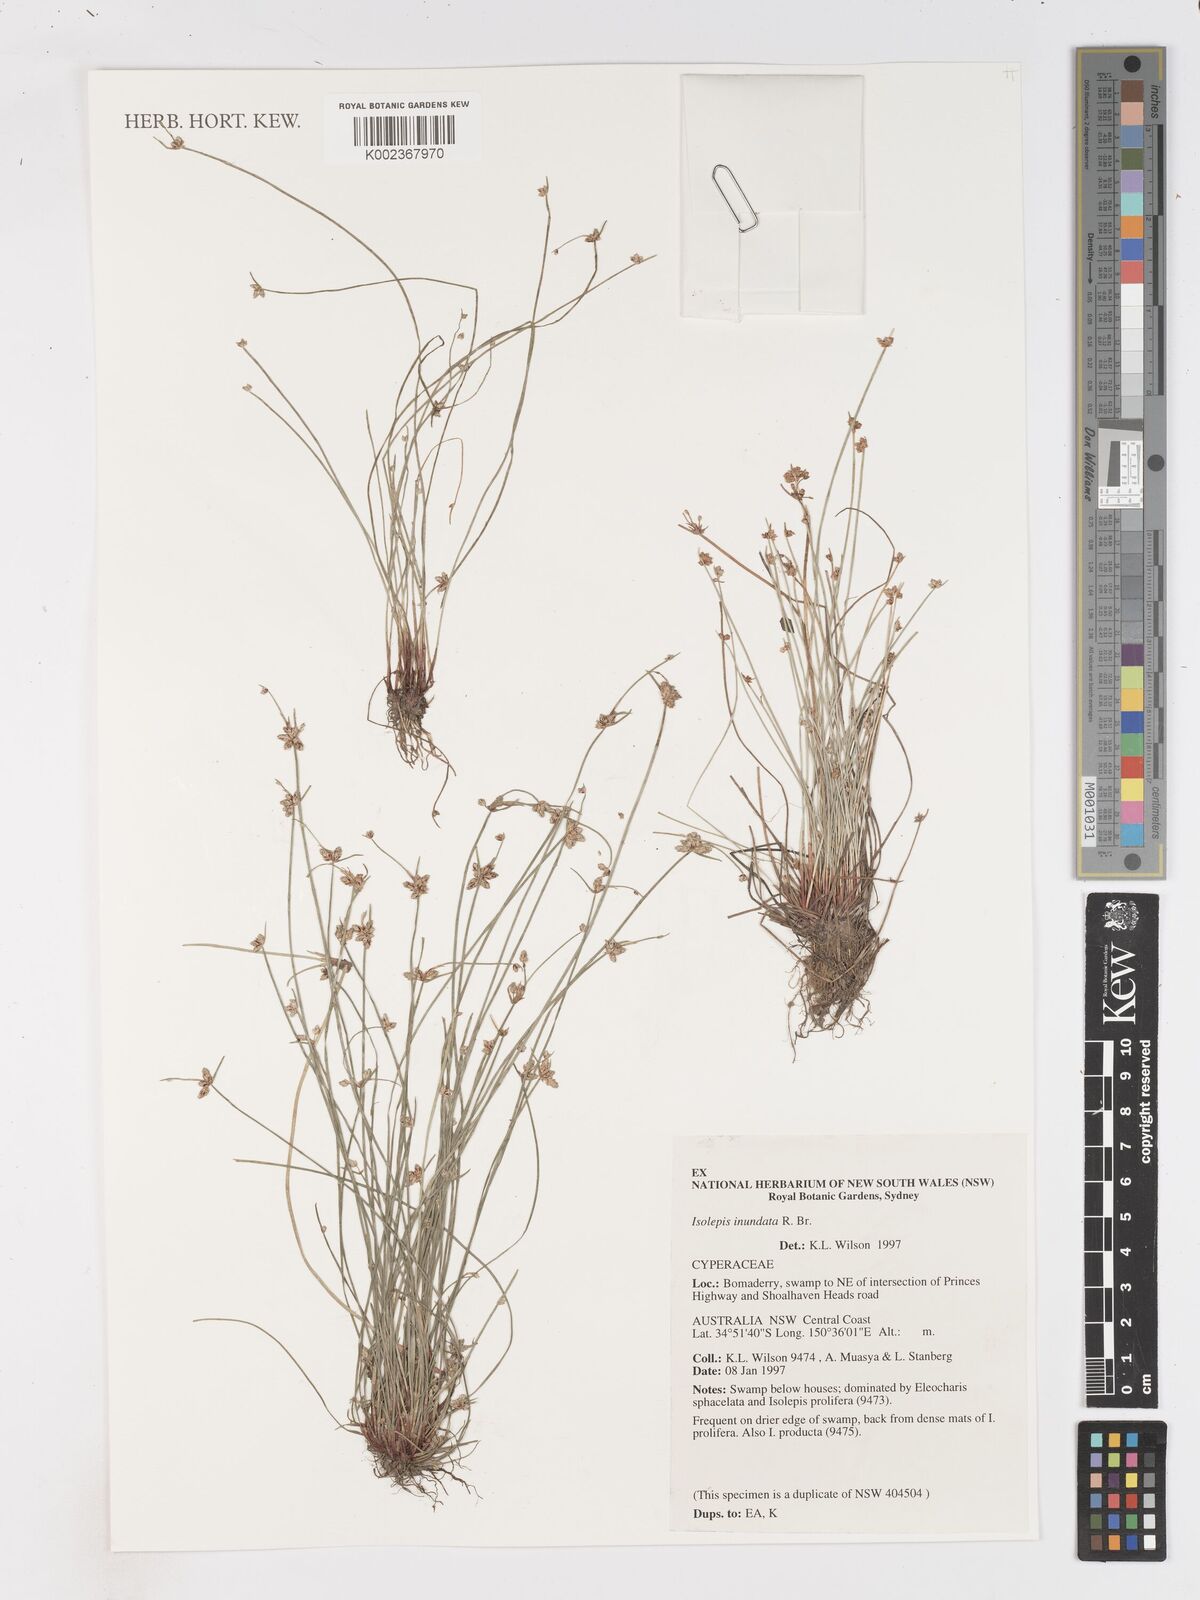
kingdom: Plantae
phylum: Tracheophyta
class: Liliopsida
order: Poales
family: Cyperaceae
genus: Isolepis
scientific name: Isolepis inundata
